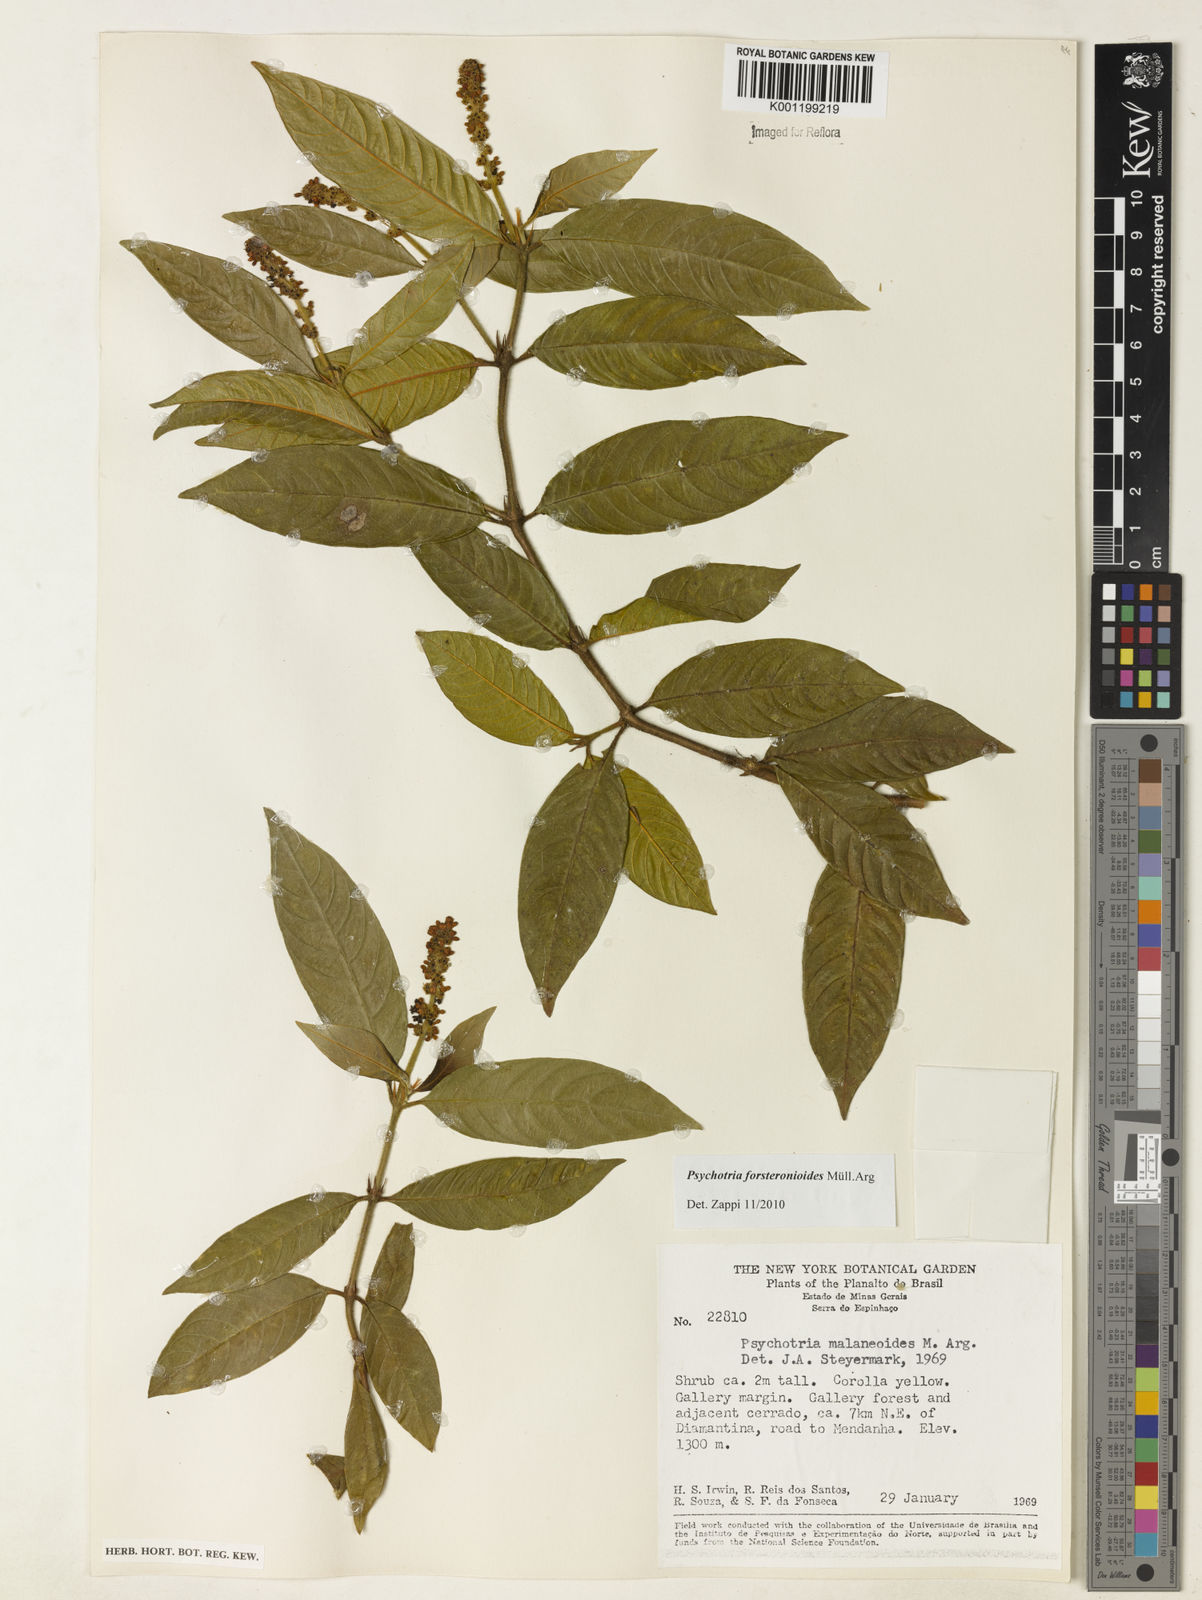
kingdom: Plantae
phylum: Tracheophyta
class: Magnoliopsida
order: Gentianales
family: Rubiaceae
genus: Psychotria
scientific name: Psychotria
